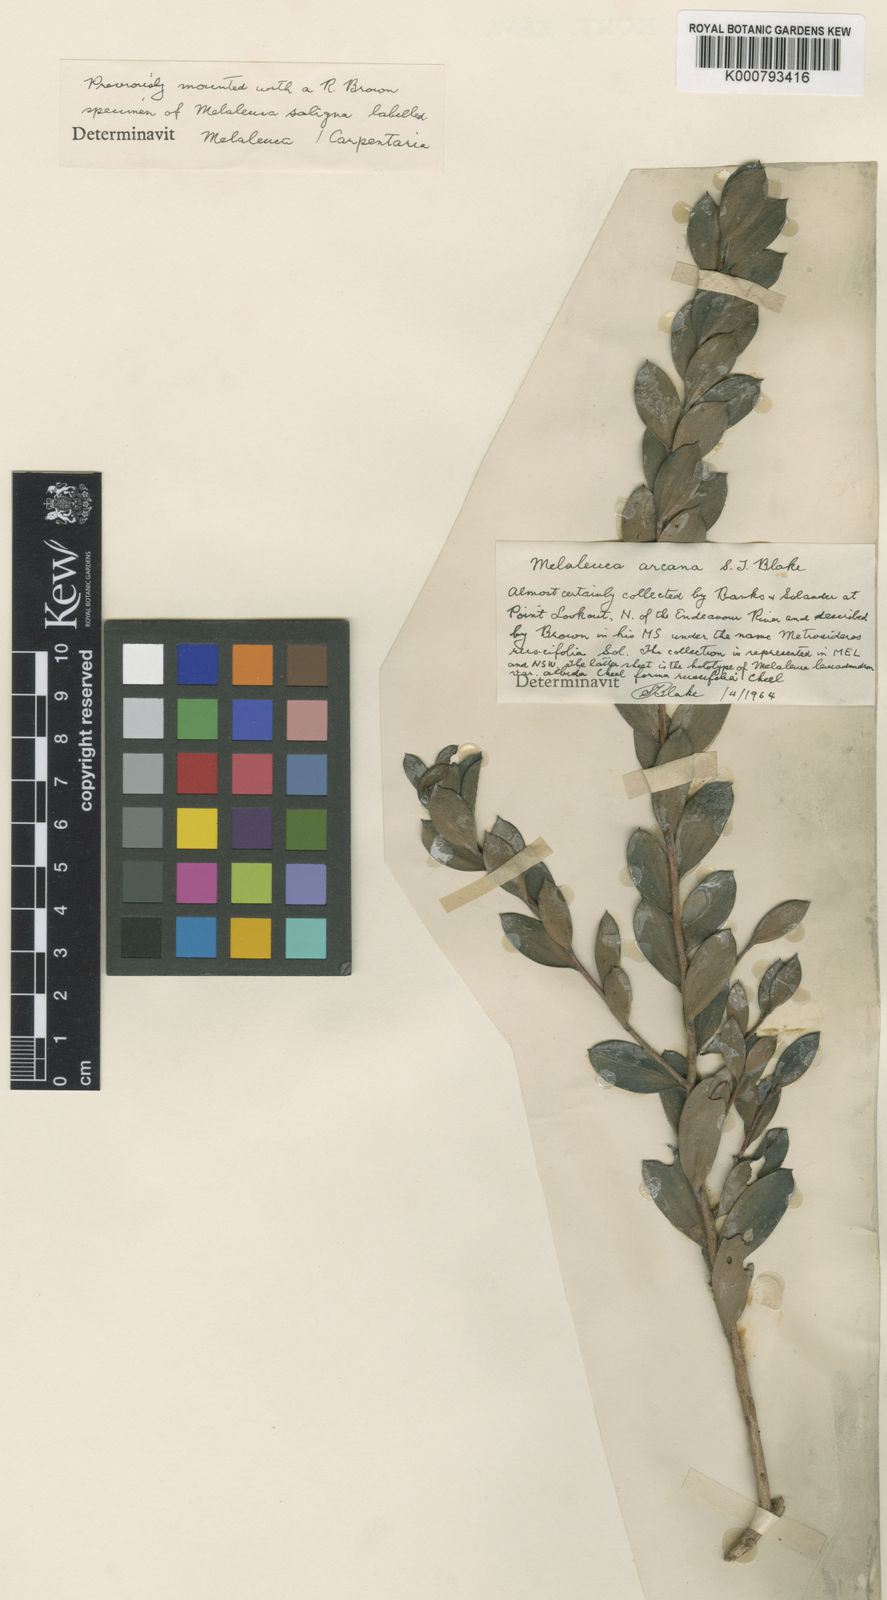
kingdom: Plantae
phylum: Tracheophyta
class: Magnoliopsida
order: Myrtales
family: Myrtaceae
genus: Melaleuca
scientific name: Melaleuca arcana
